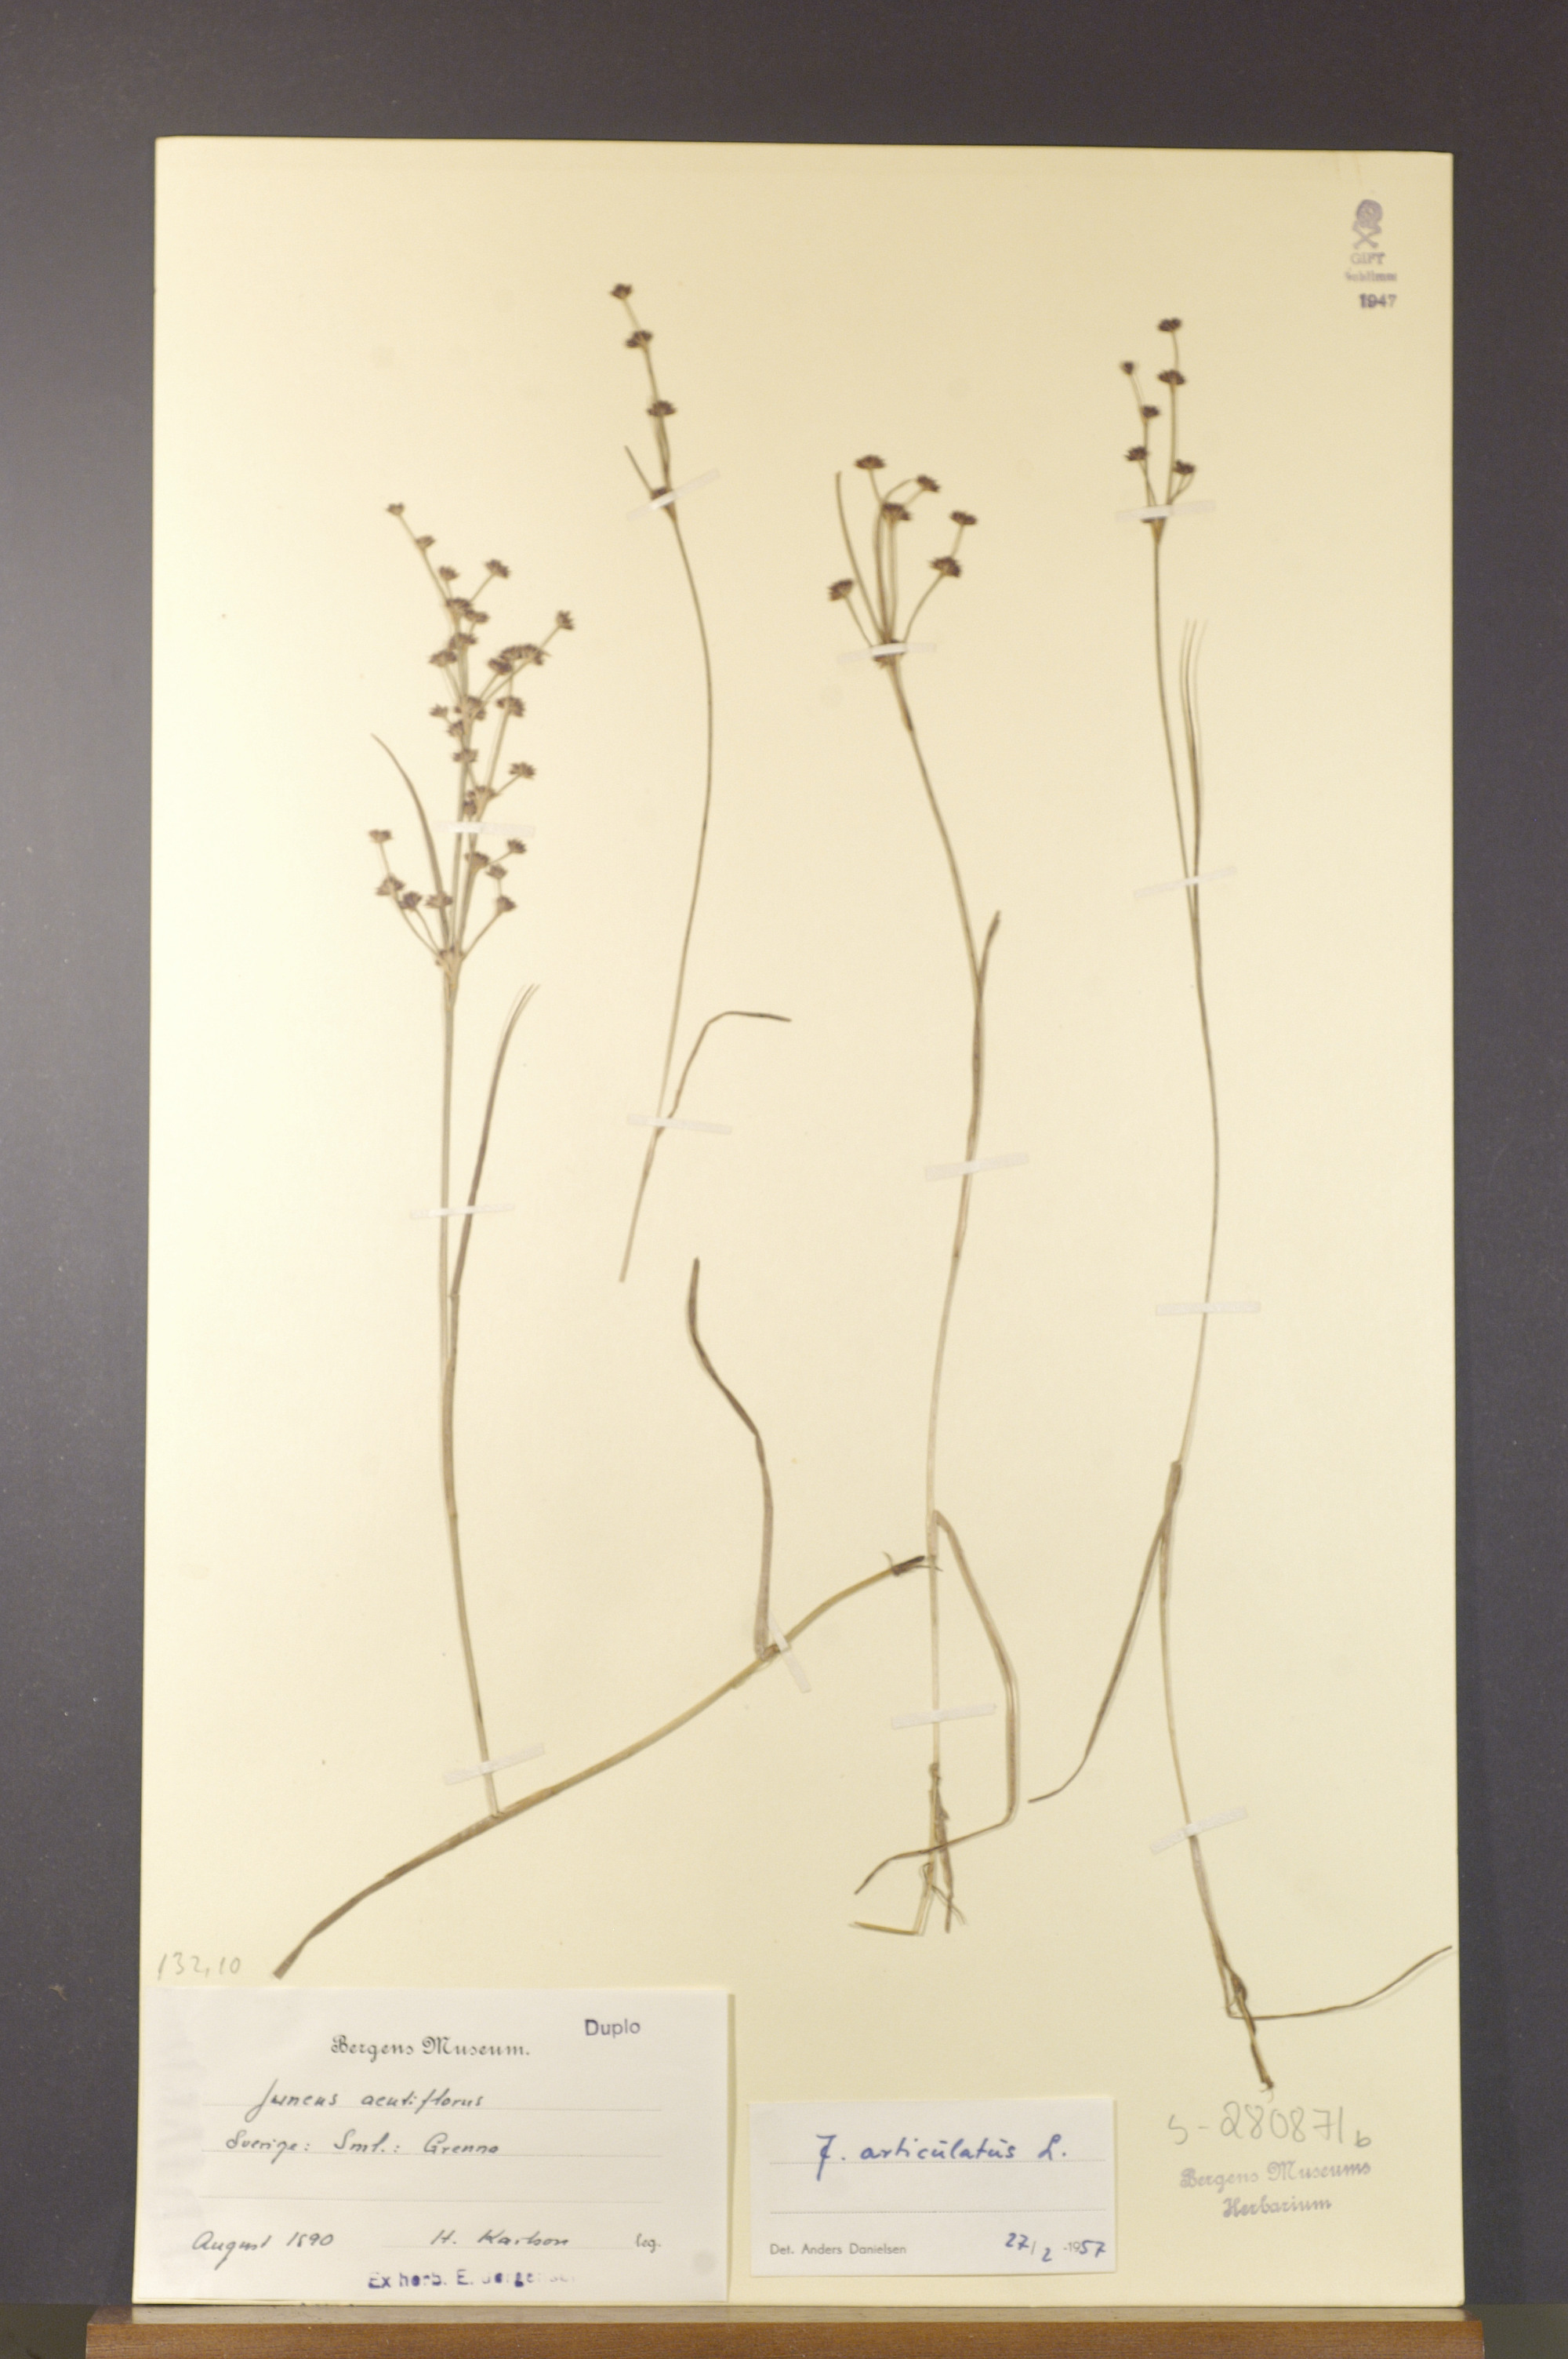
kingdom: Plantae
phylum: Tracheophyta
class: Liliopsida
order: Poales
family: Juncaceae
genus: Juncus
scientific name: Juncus articulatus
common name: Jointed rush
